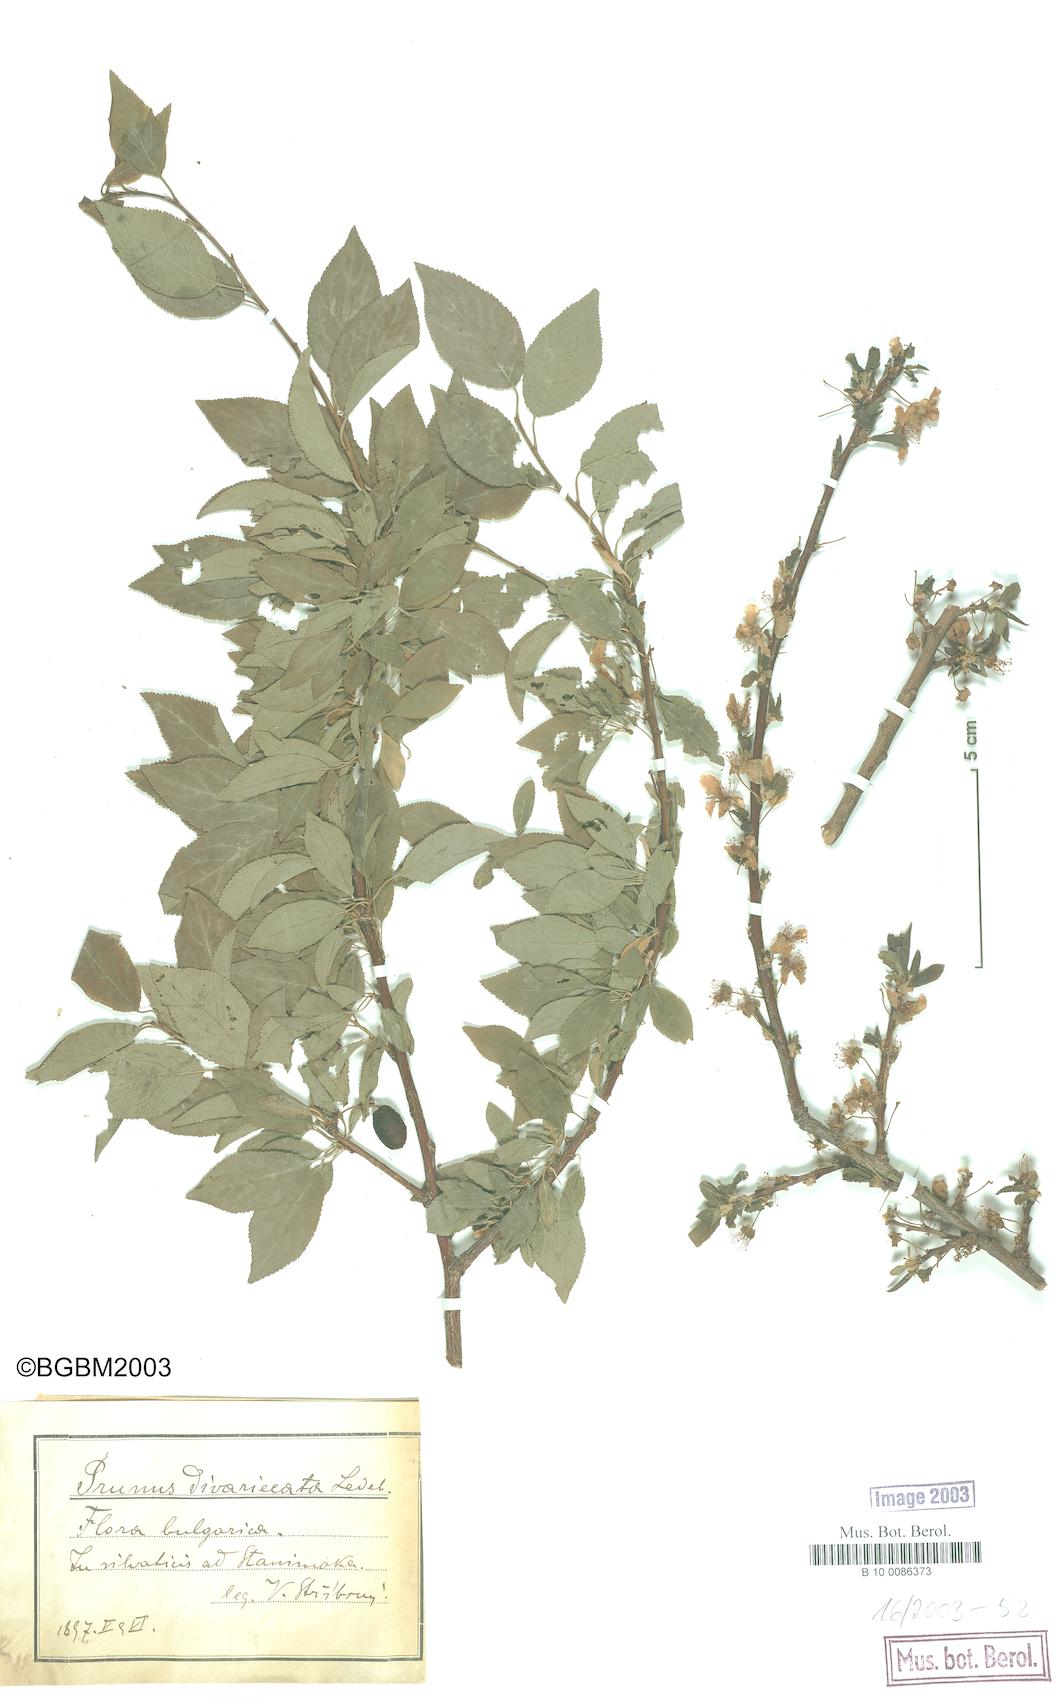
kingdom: Plantae
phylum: Tracheophyta
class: Magnoliopsida
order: Rosales
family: Rosaceae
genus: Prunus
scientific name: Prunus cerasifera
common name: Cherry plum
